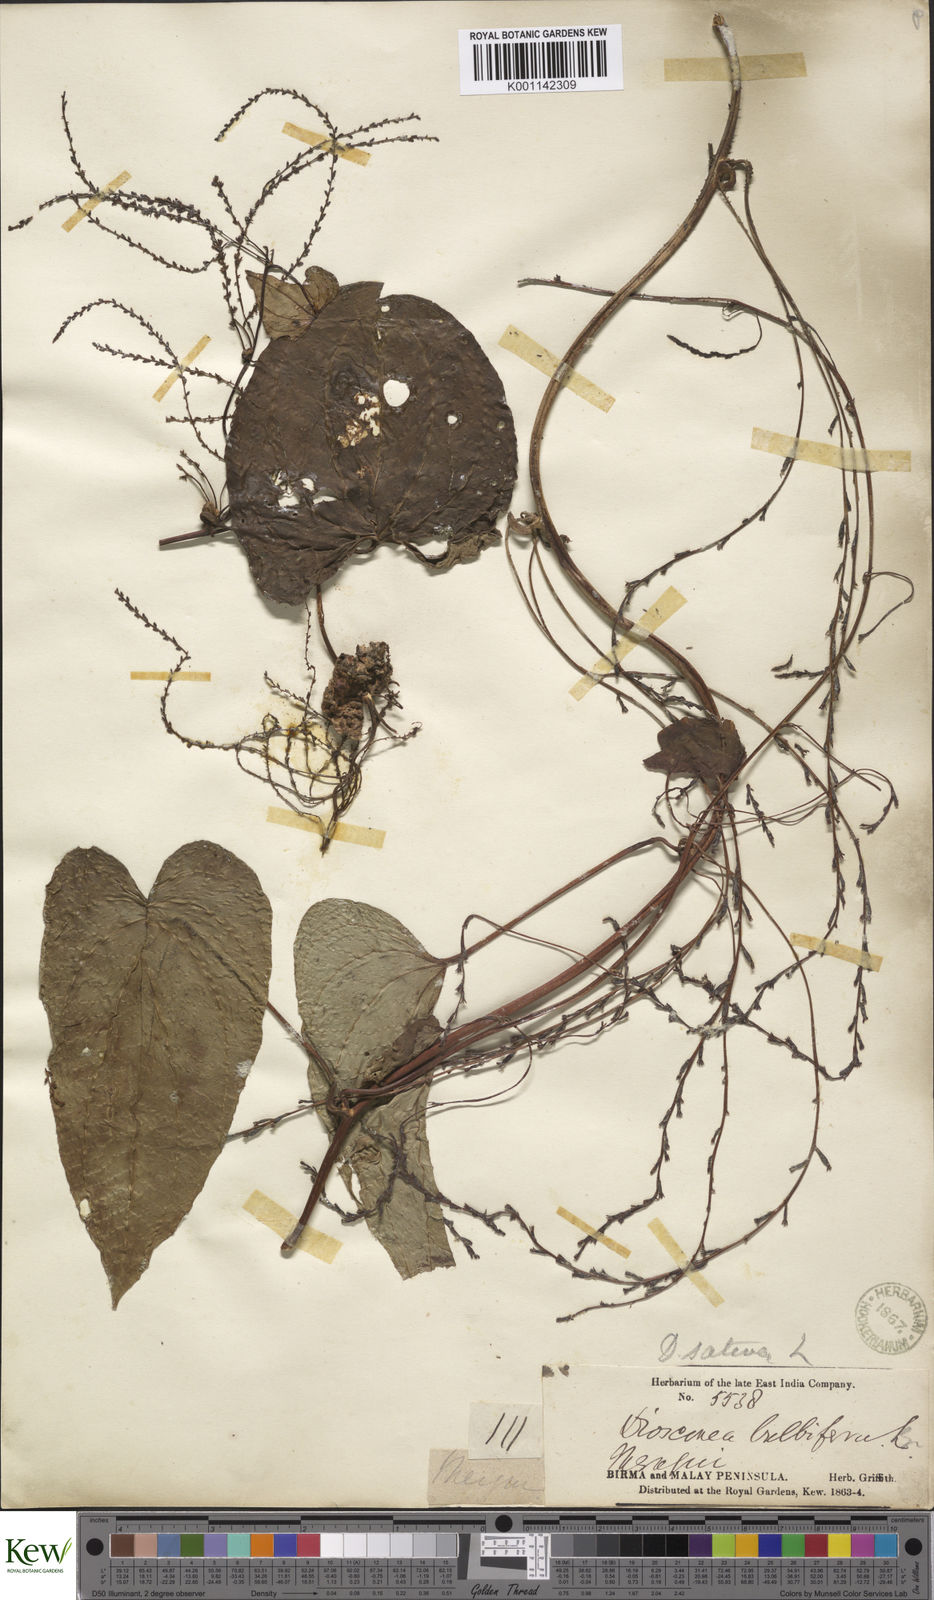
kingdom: Plantae
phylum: Tracheophyta
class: Liliopsida
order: Dioscoreales
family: Dioscoreaceae
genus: Dioscorea
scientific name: Dioscorea bulbifera
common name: Air yam
